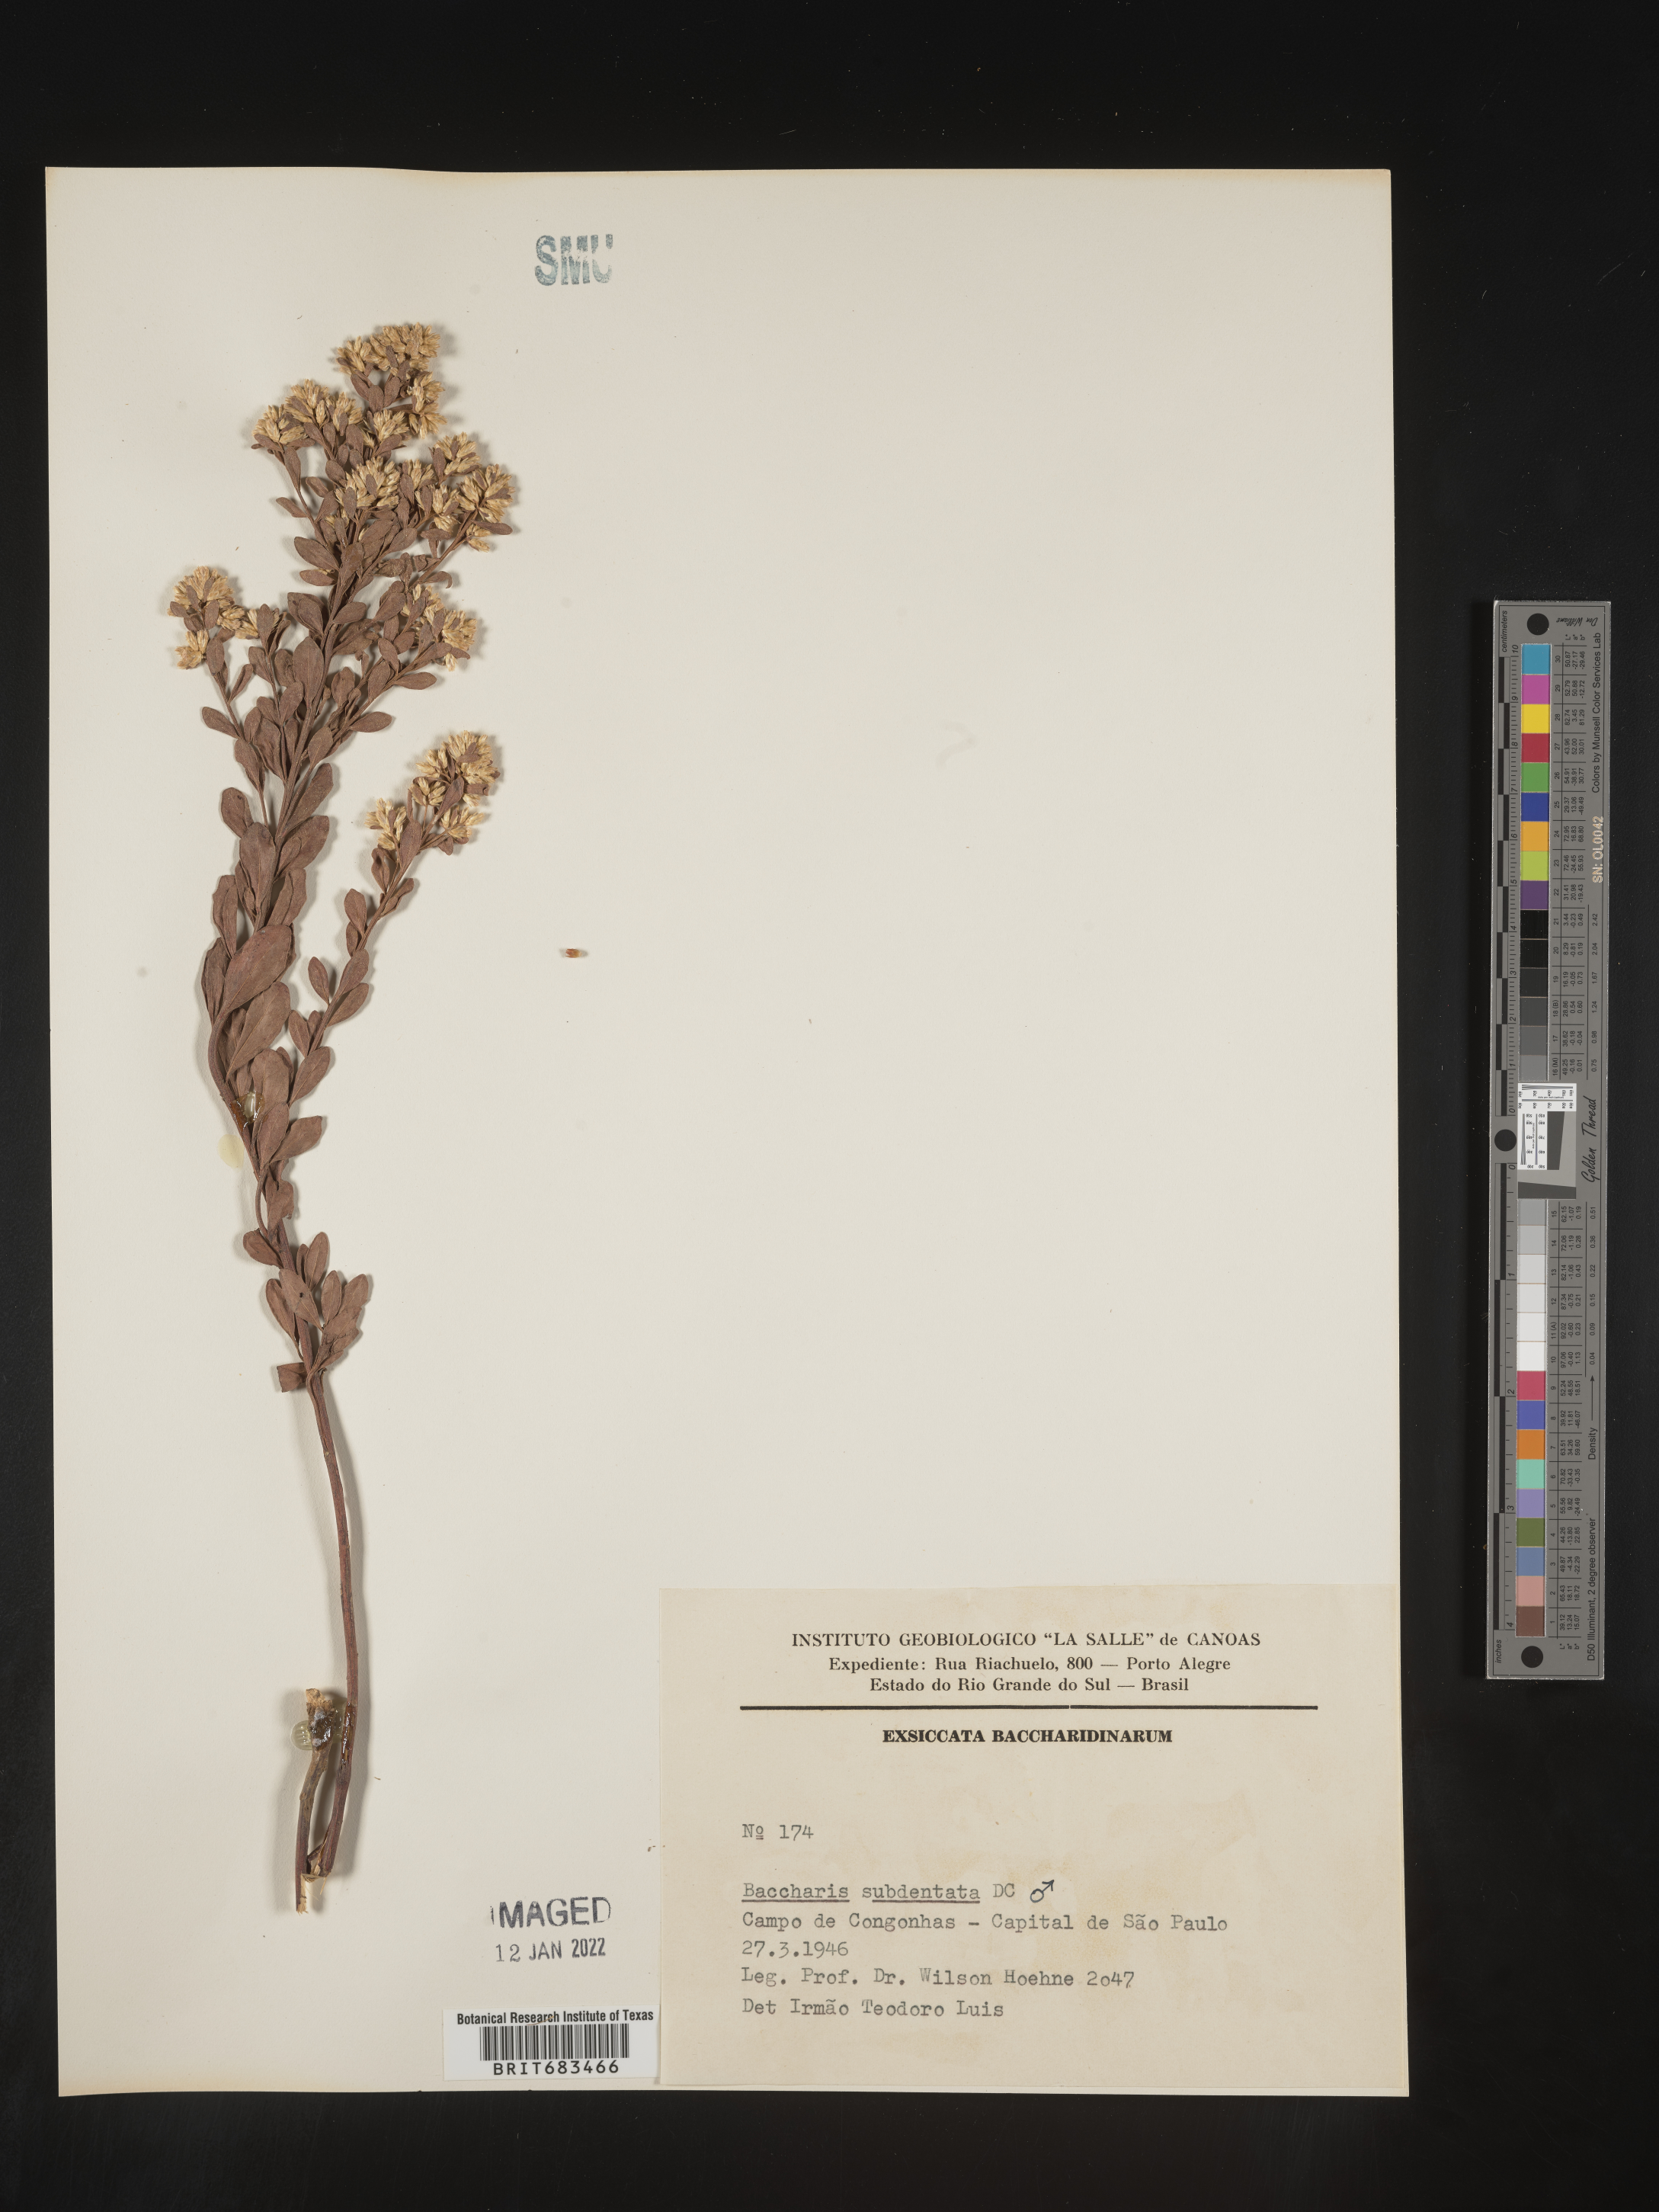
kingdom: Plantae
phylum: Tracheophyta
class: Magnoliopsida
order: Asterales
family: Asteraceae
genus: Baccharis
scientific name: Baccharis
